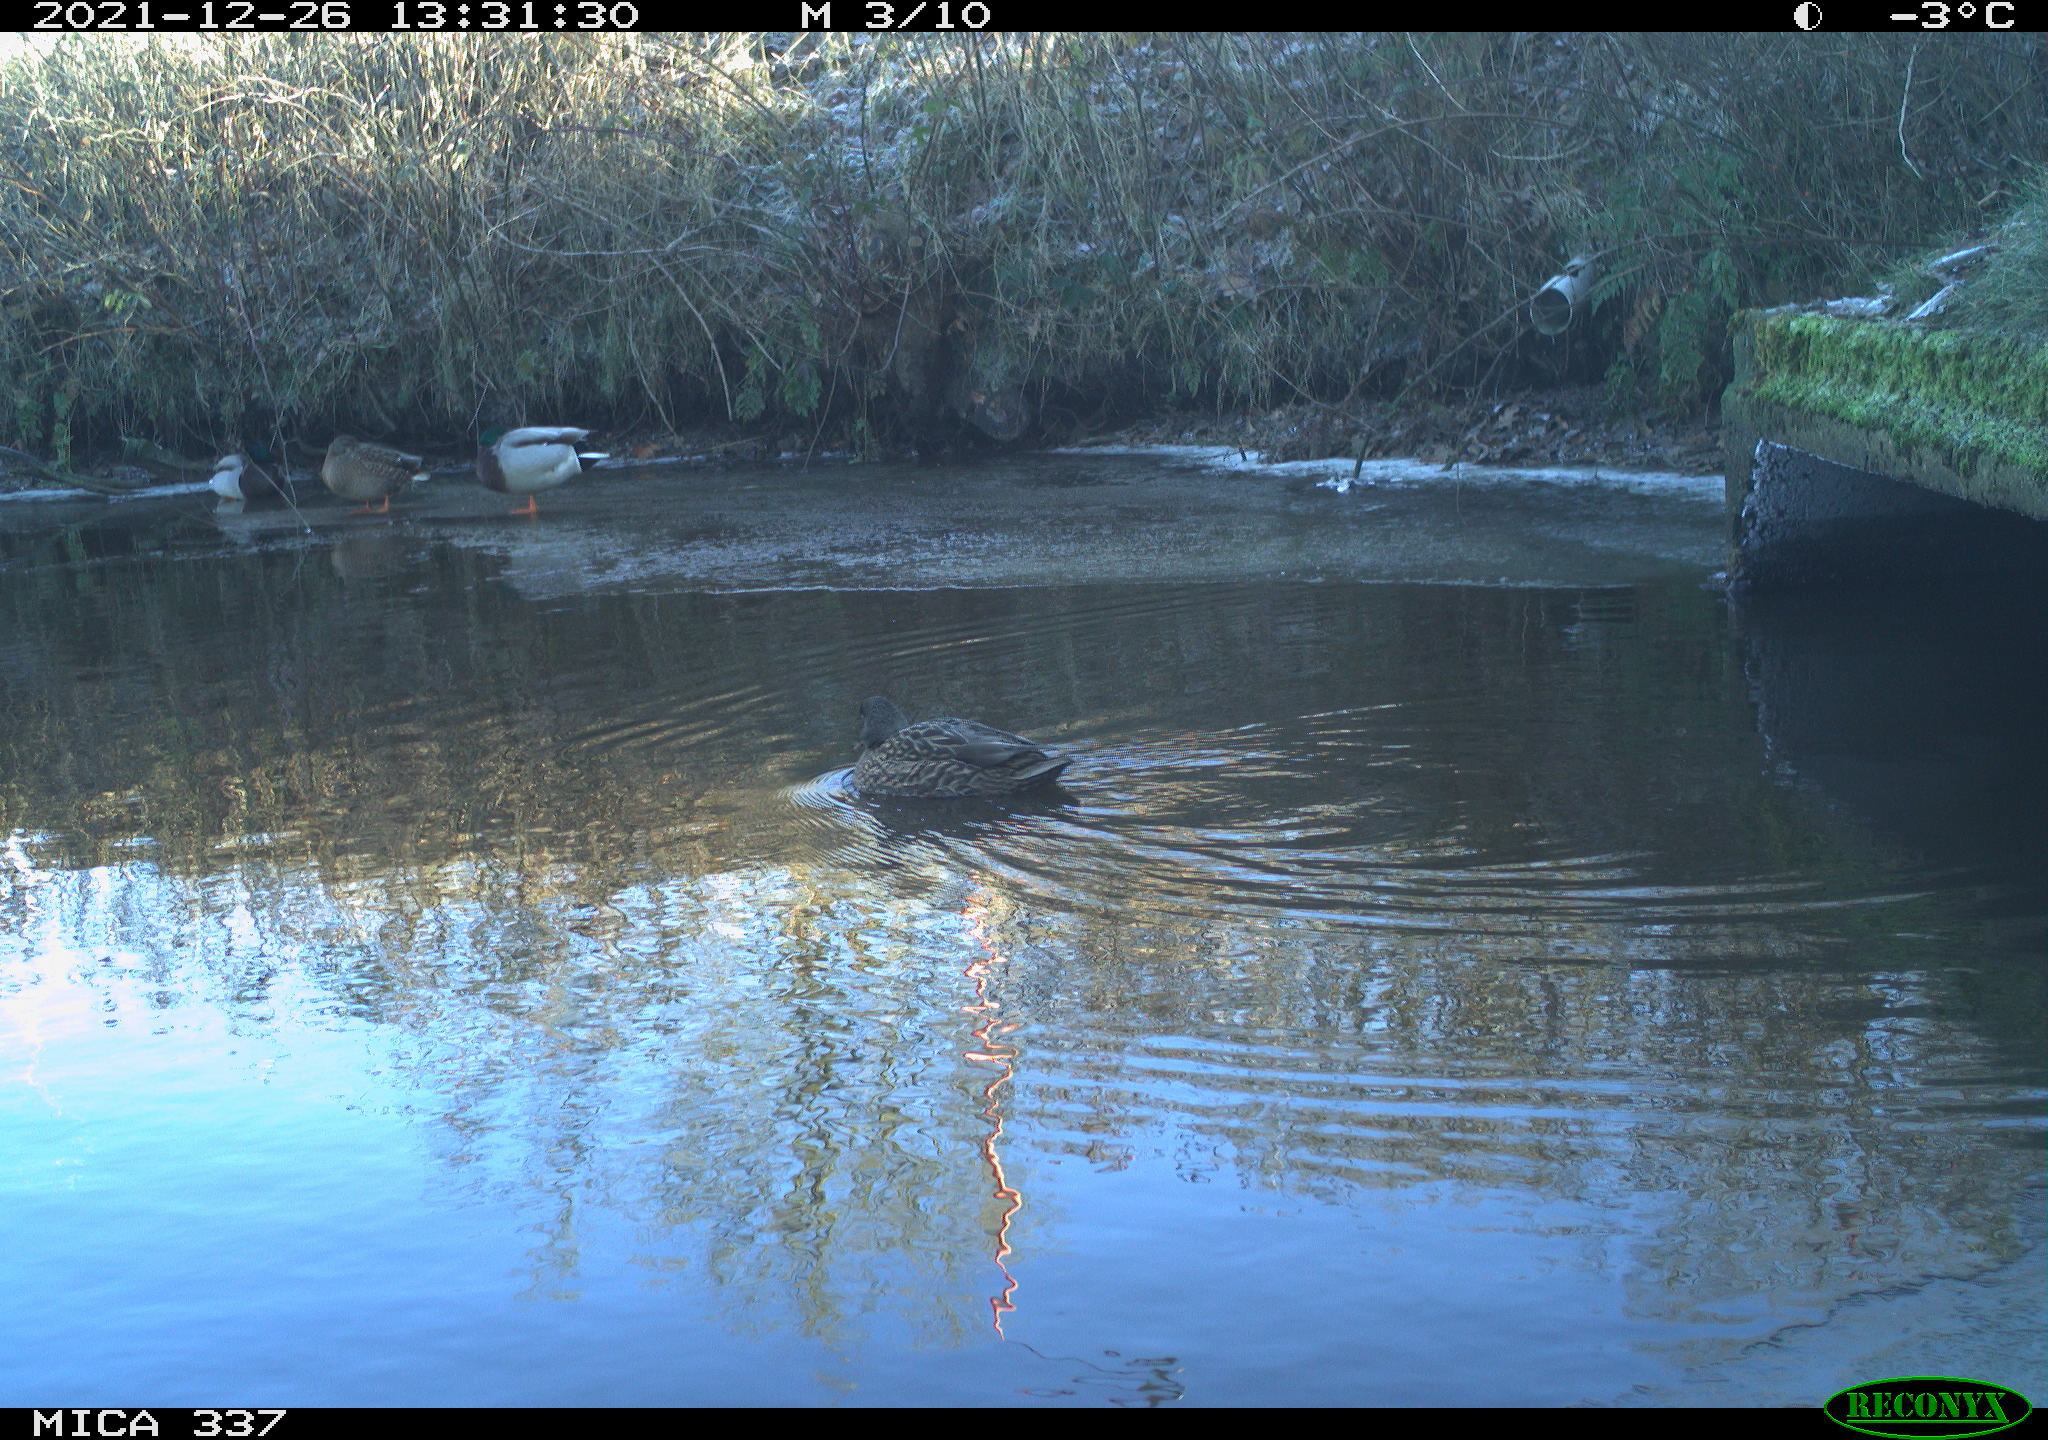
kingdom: Animalia
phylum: Chordata
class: Aves
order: Anseriformes
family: Anatidae
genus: Anas
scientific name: Anas platyrhynchos
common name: Mallard
